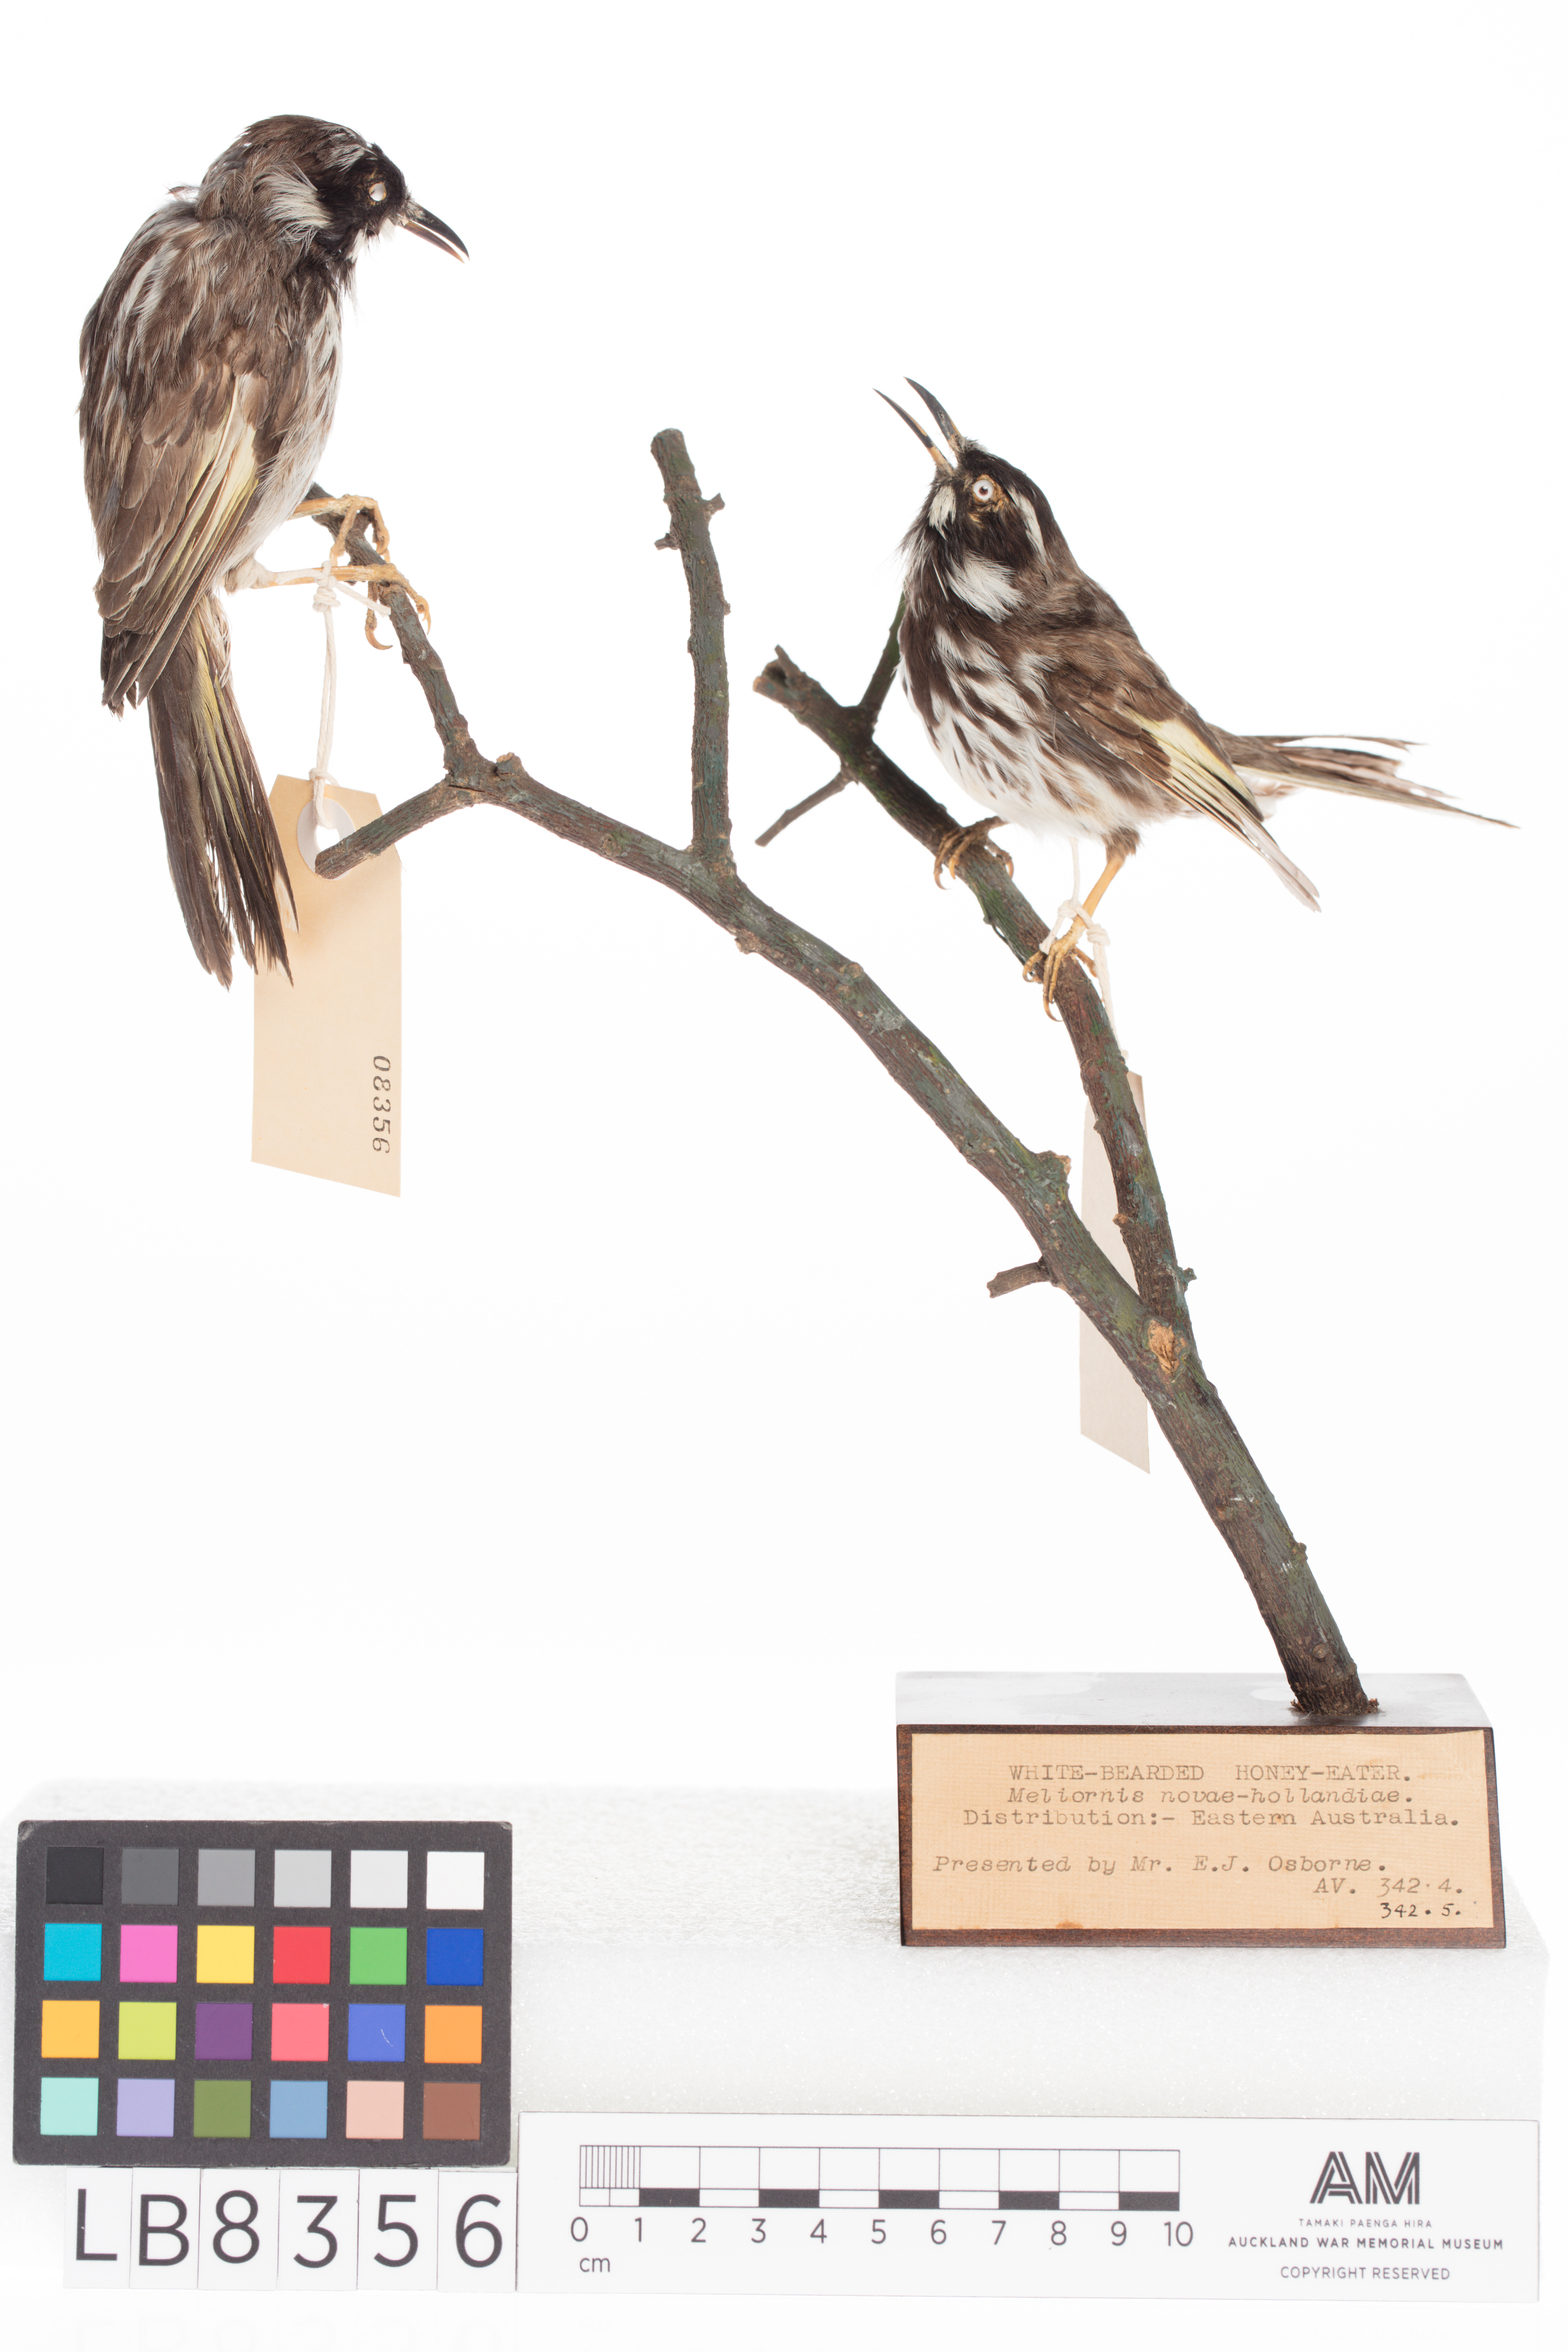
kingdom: Animalia
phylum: Chordata
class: Aves
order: Passeriformes
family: Meliphagidae
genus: Phylidonyris
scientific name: Phylidonyris novaehollandiae
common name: New holland honeyeater
